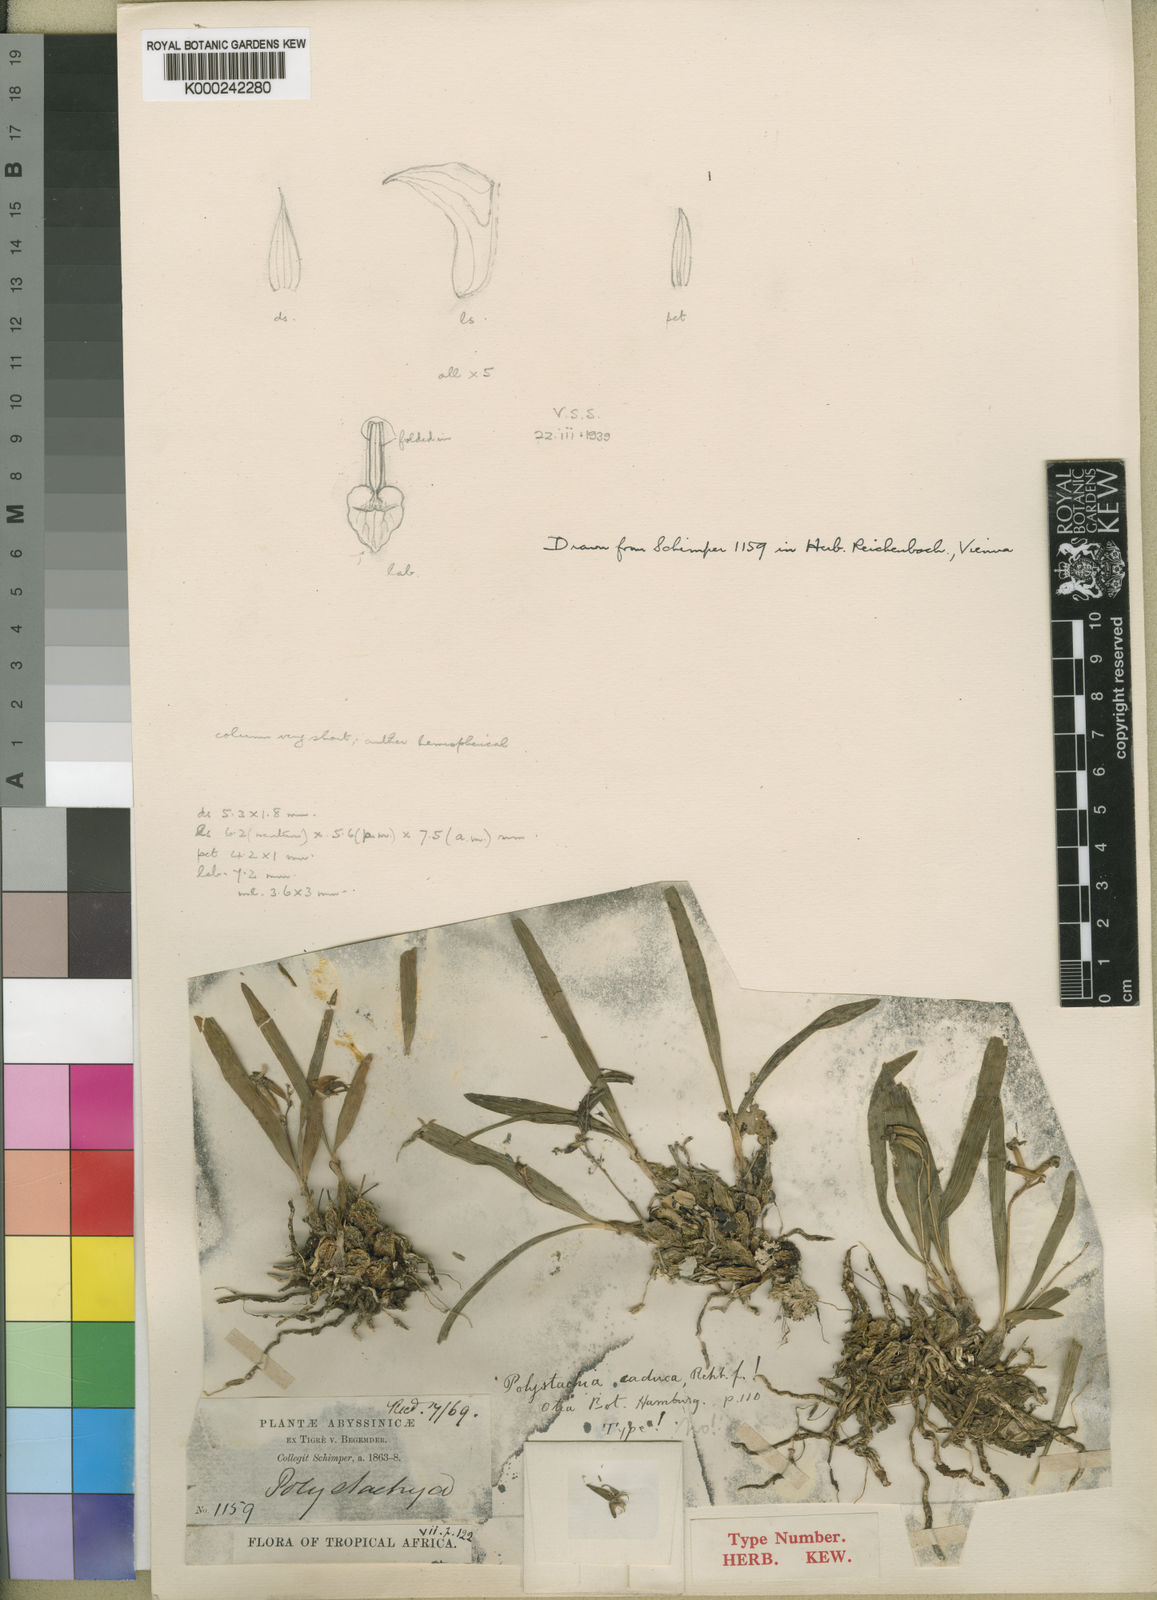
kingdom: Plantae
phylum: Tracheophyta
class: Liliopsida
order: Asparagales
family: Orchidaceae
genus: Polystachya
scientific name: Polystachya caduca
